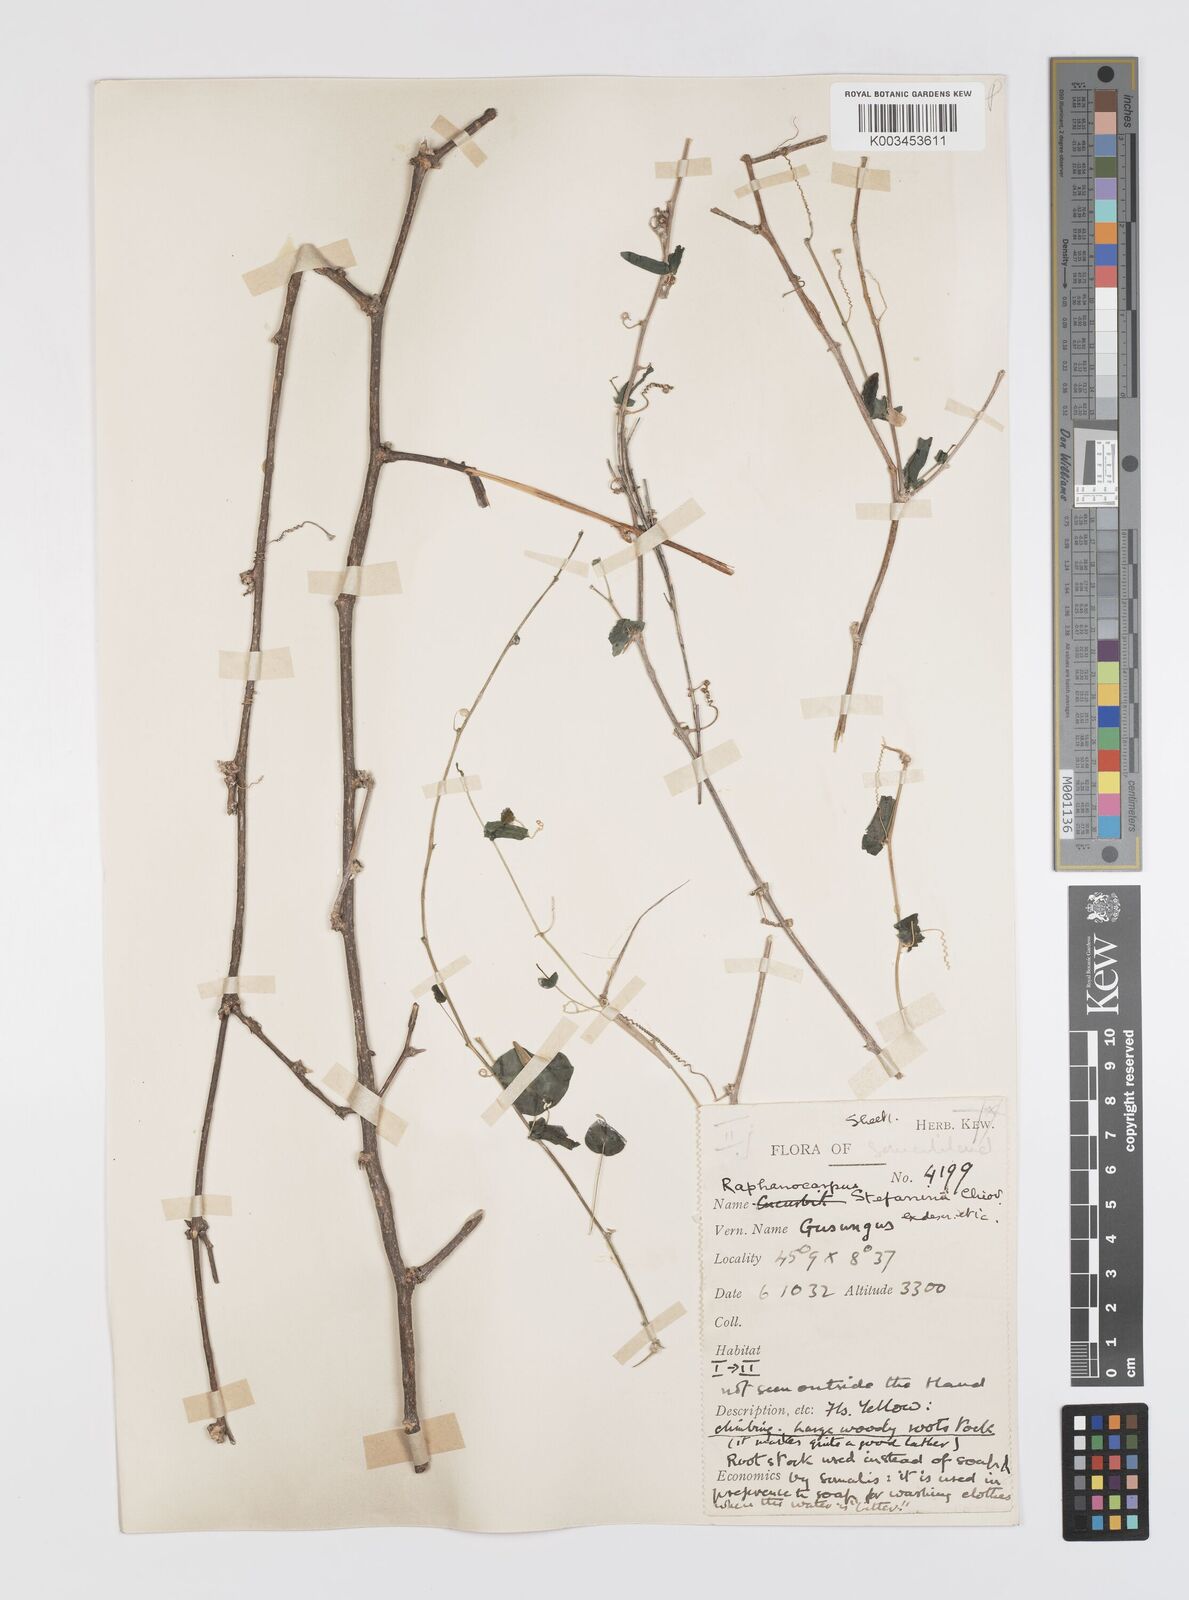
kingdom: Plantae
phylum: Tracheophyta
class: Magnoliopsida
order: Cucurbitales
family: Cucurbitaceae
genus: Momordica
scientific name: Momordica sessilifolia
